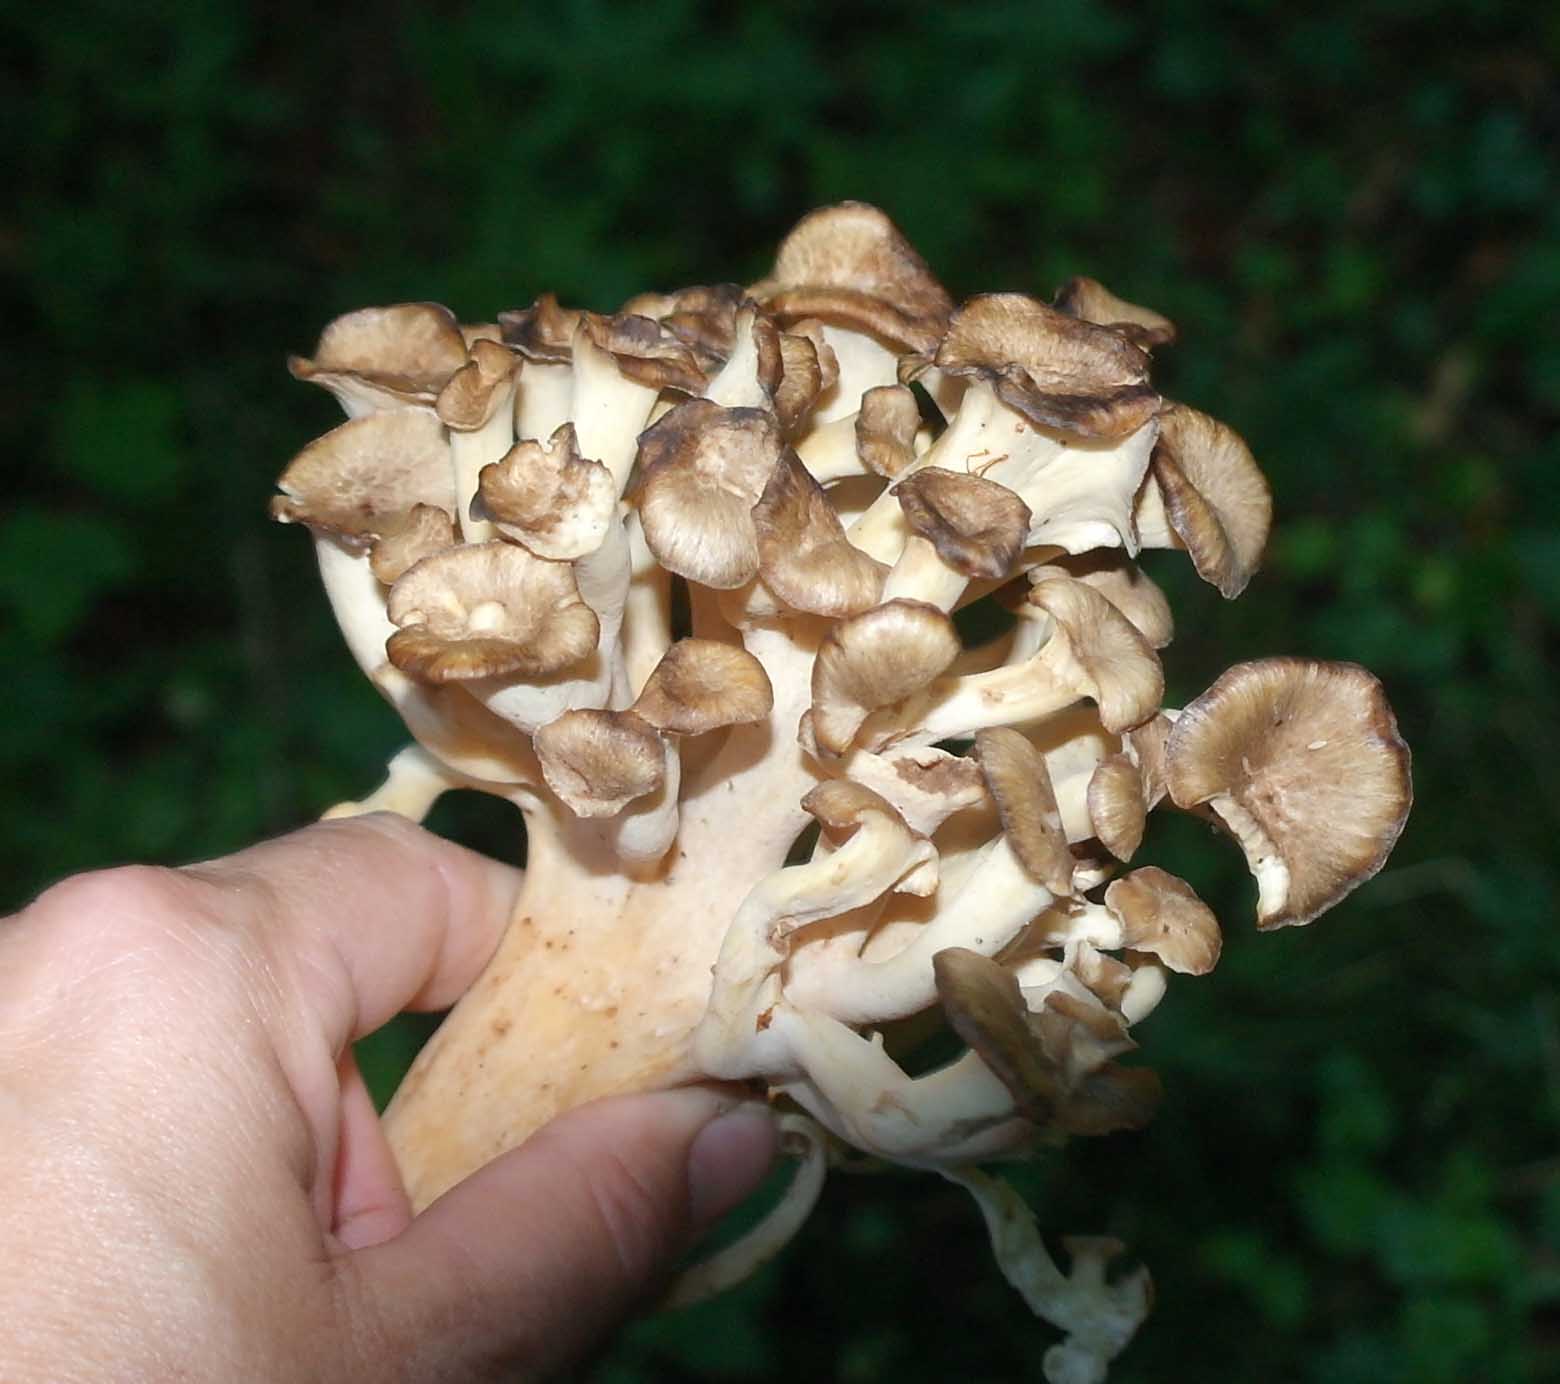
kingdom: Fungi
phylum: Basidiomycota
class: Agaricomycetes
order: Polyporales
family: Polyporaceae
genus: Polyporus
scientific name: Polyporus umbellatus
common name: skærmformet stilkporesvamp
